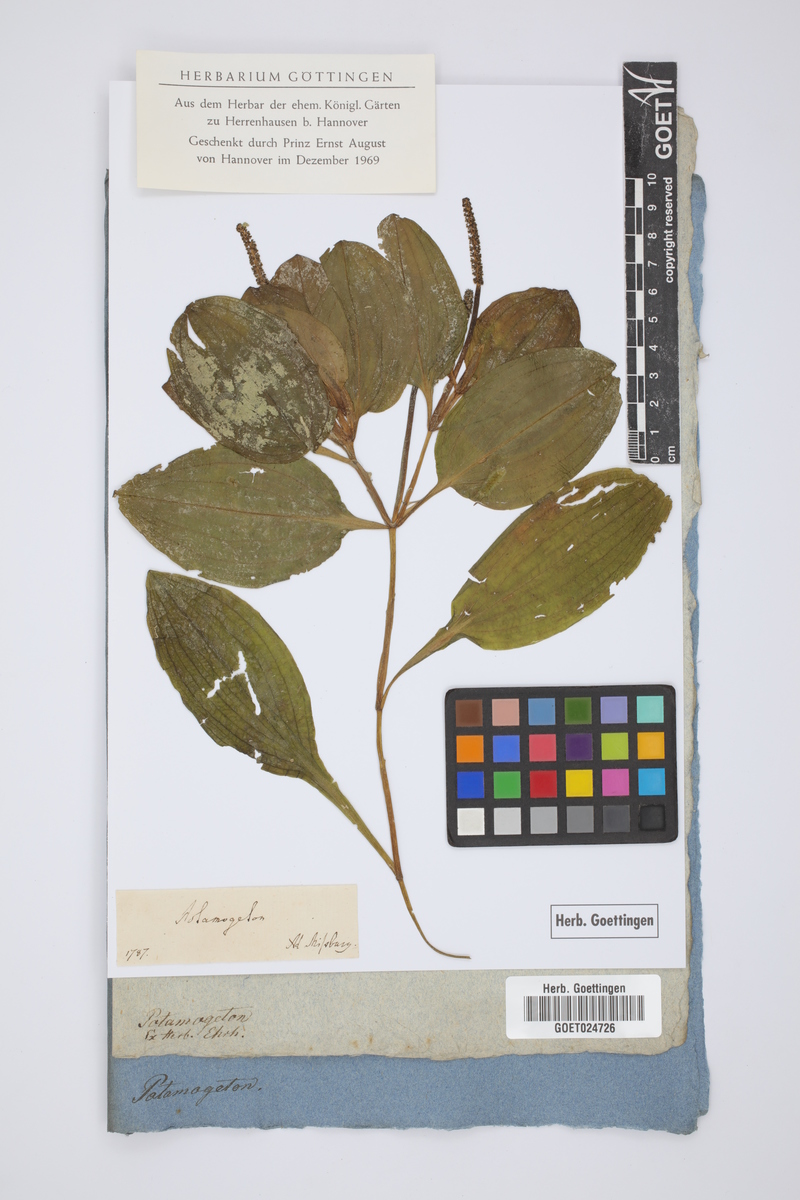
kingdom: Plantae
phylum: Tracheophyta
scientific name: Tracheophyta
